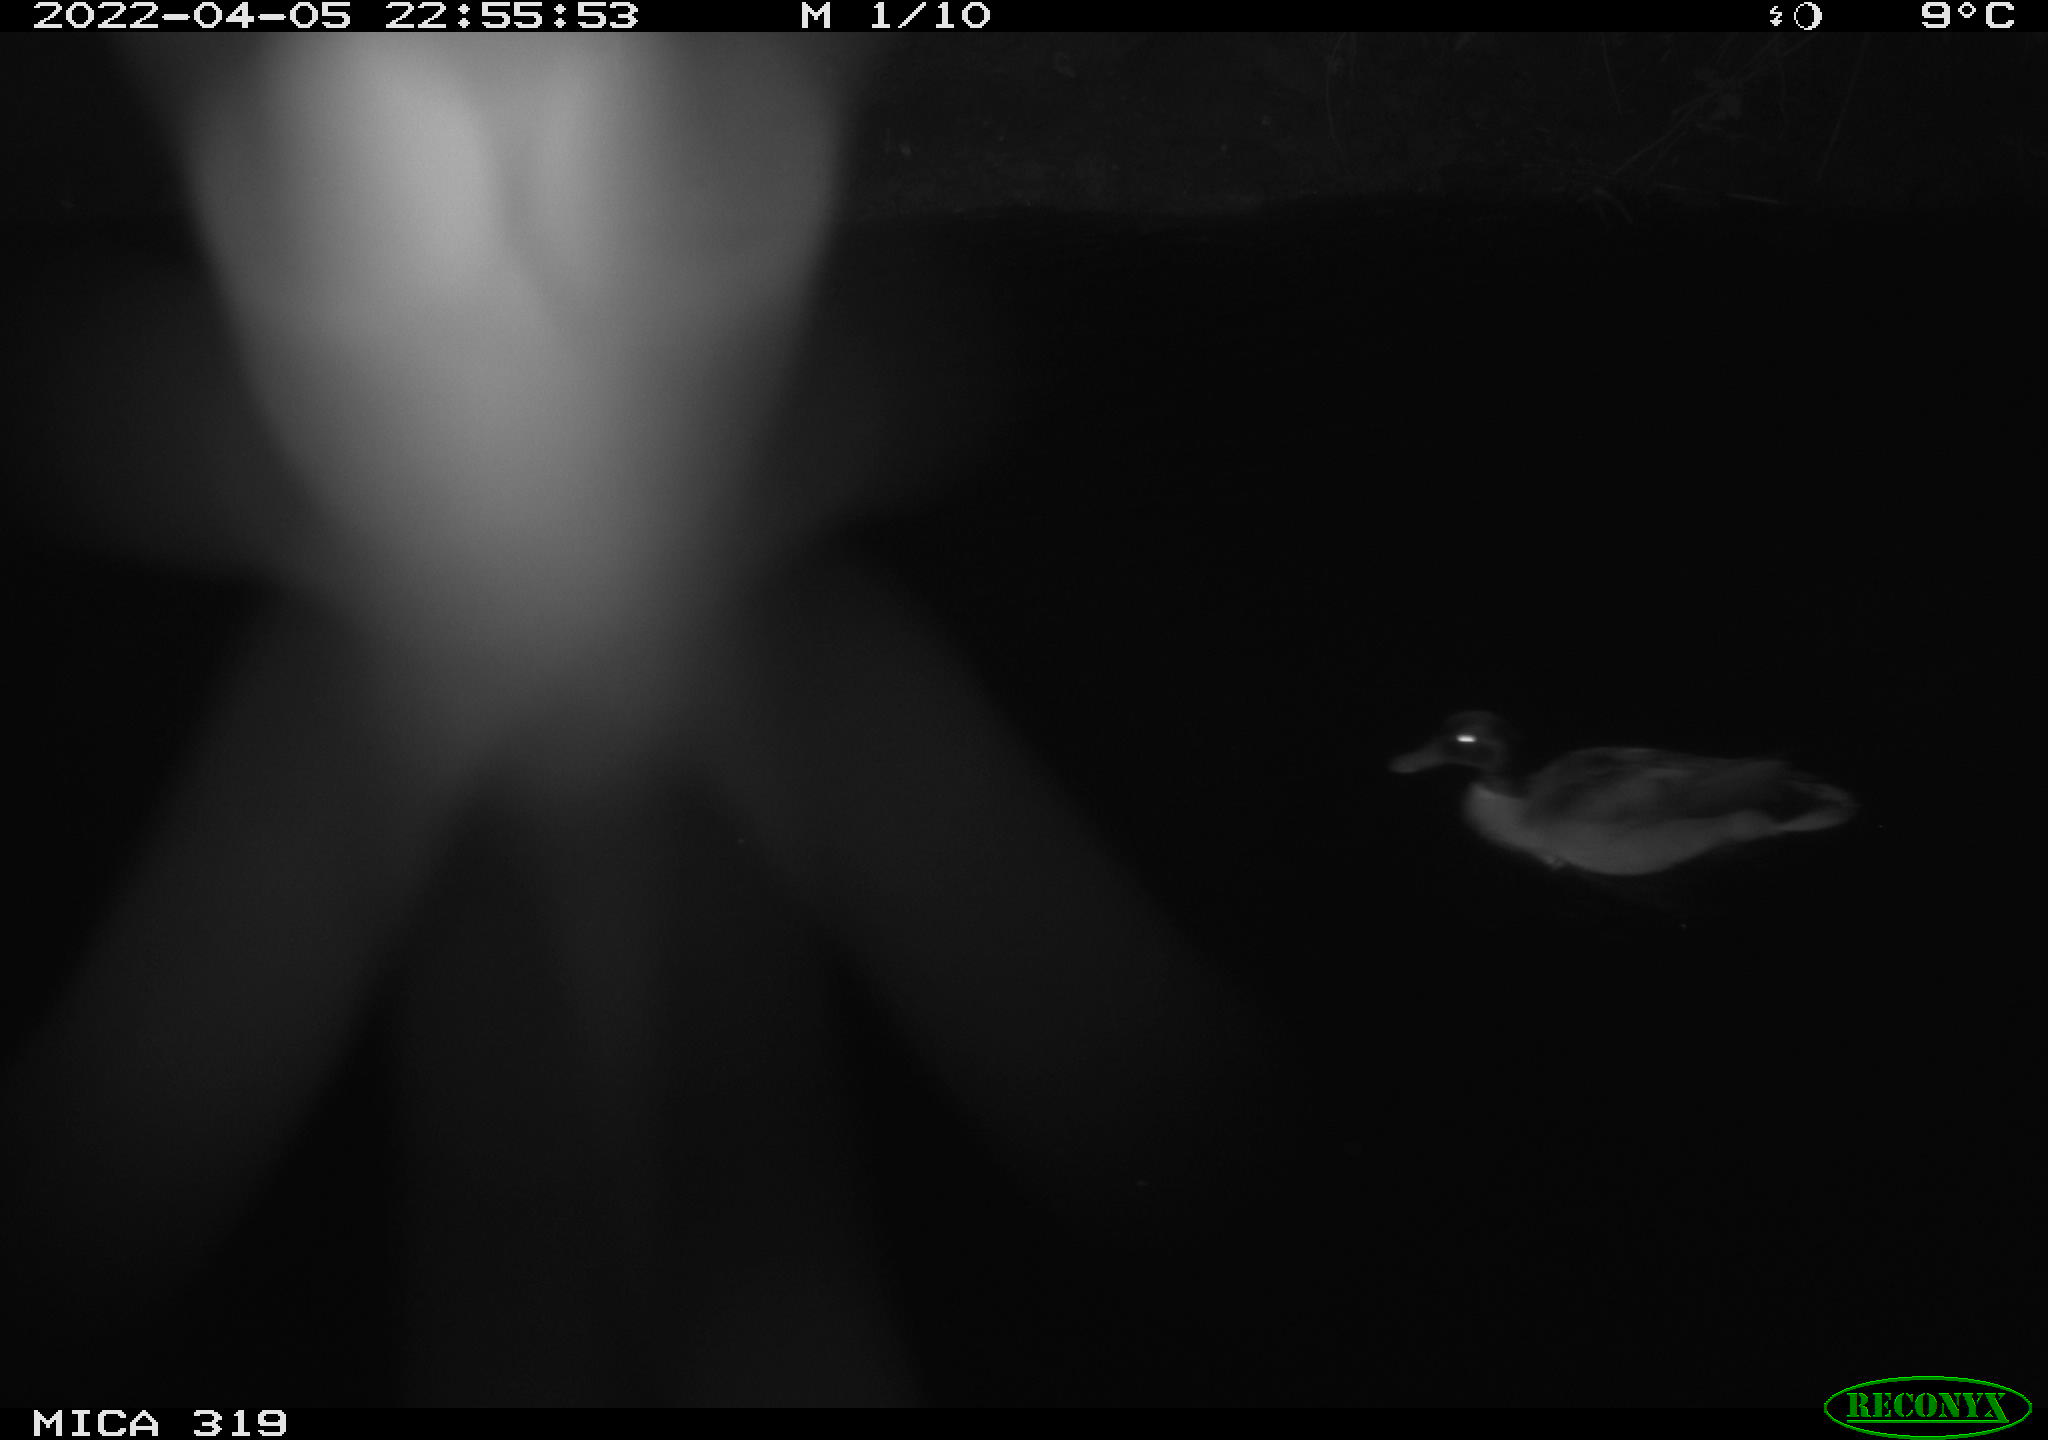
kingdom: Animalia
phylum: Chordata
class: Aves
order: Anseriformes
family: Anatidae
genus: Anas
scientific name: Anas platyrhynchos
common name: Mallard
